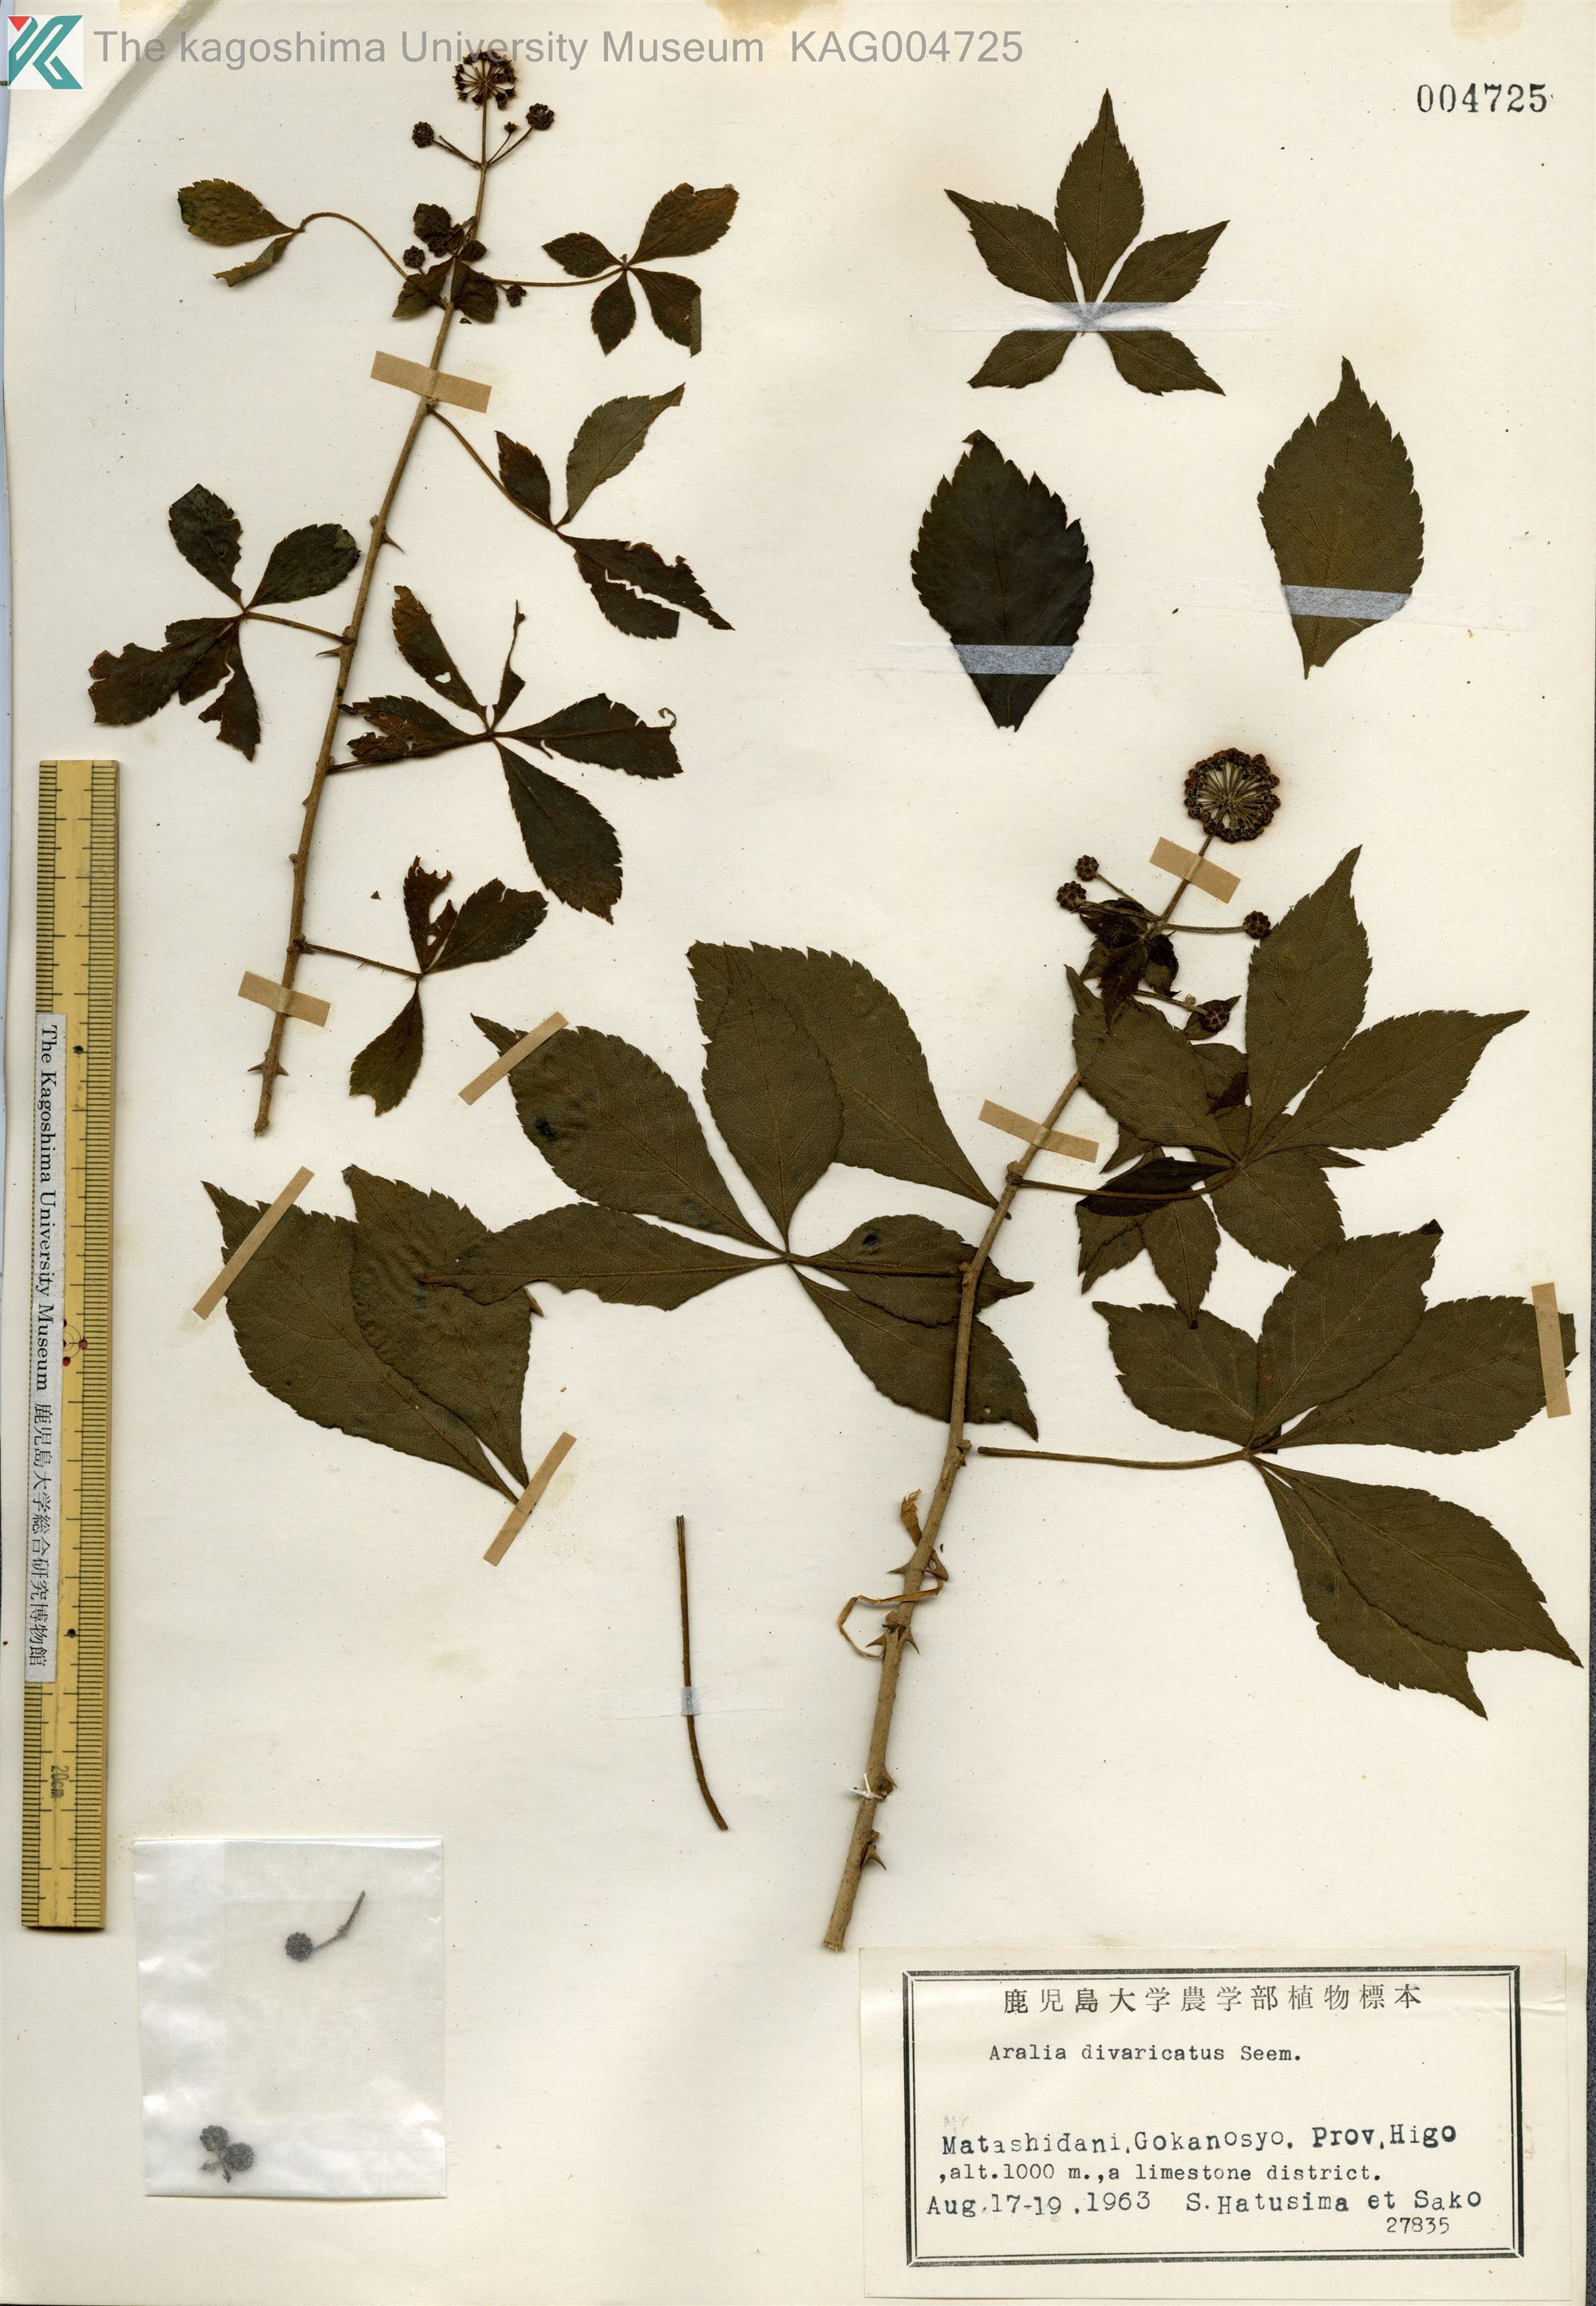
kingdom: Plantae
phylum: Tracheophyta
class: Magnoliopsida
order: Apiales
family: Araliaceae
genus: Eleutherococcus
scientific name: Eleutherococcus divaricatus
